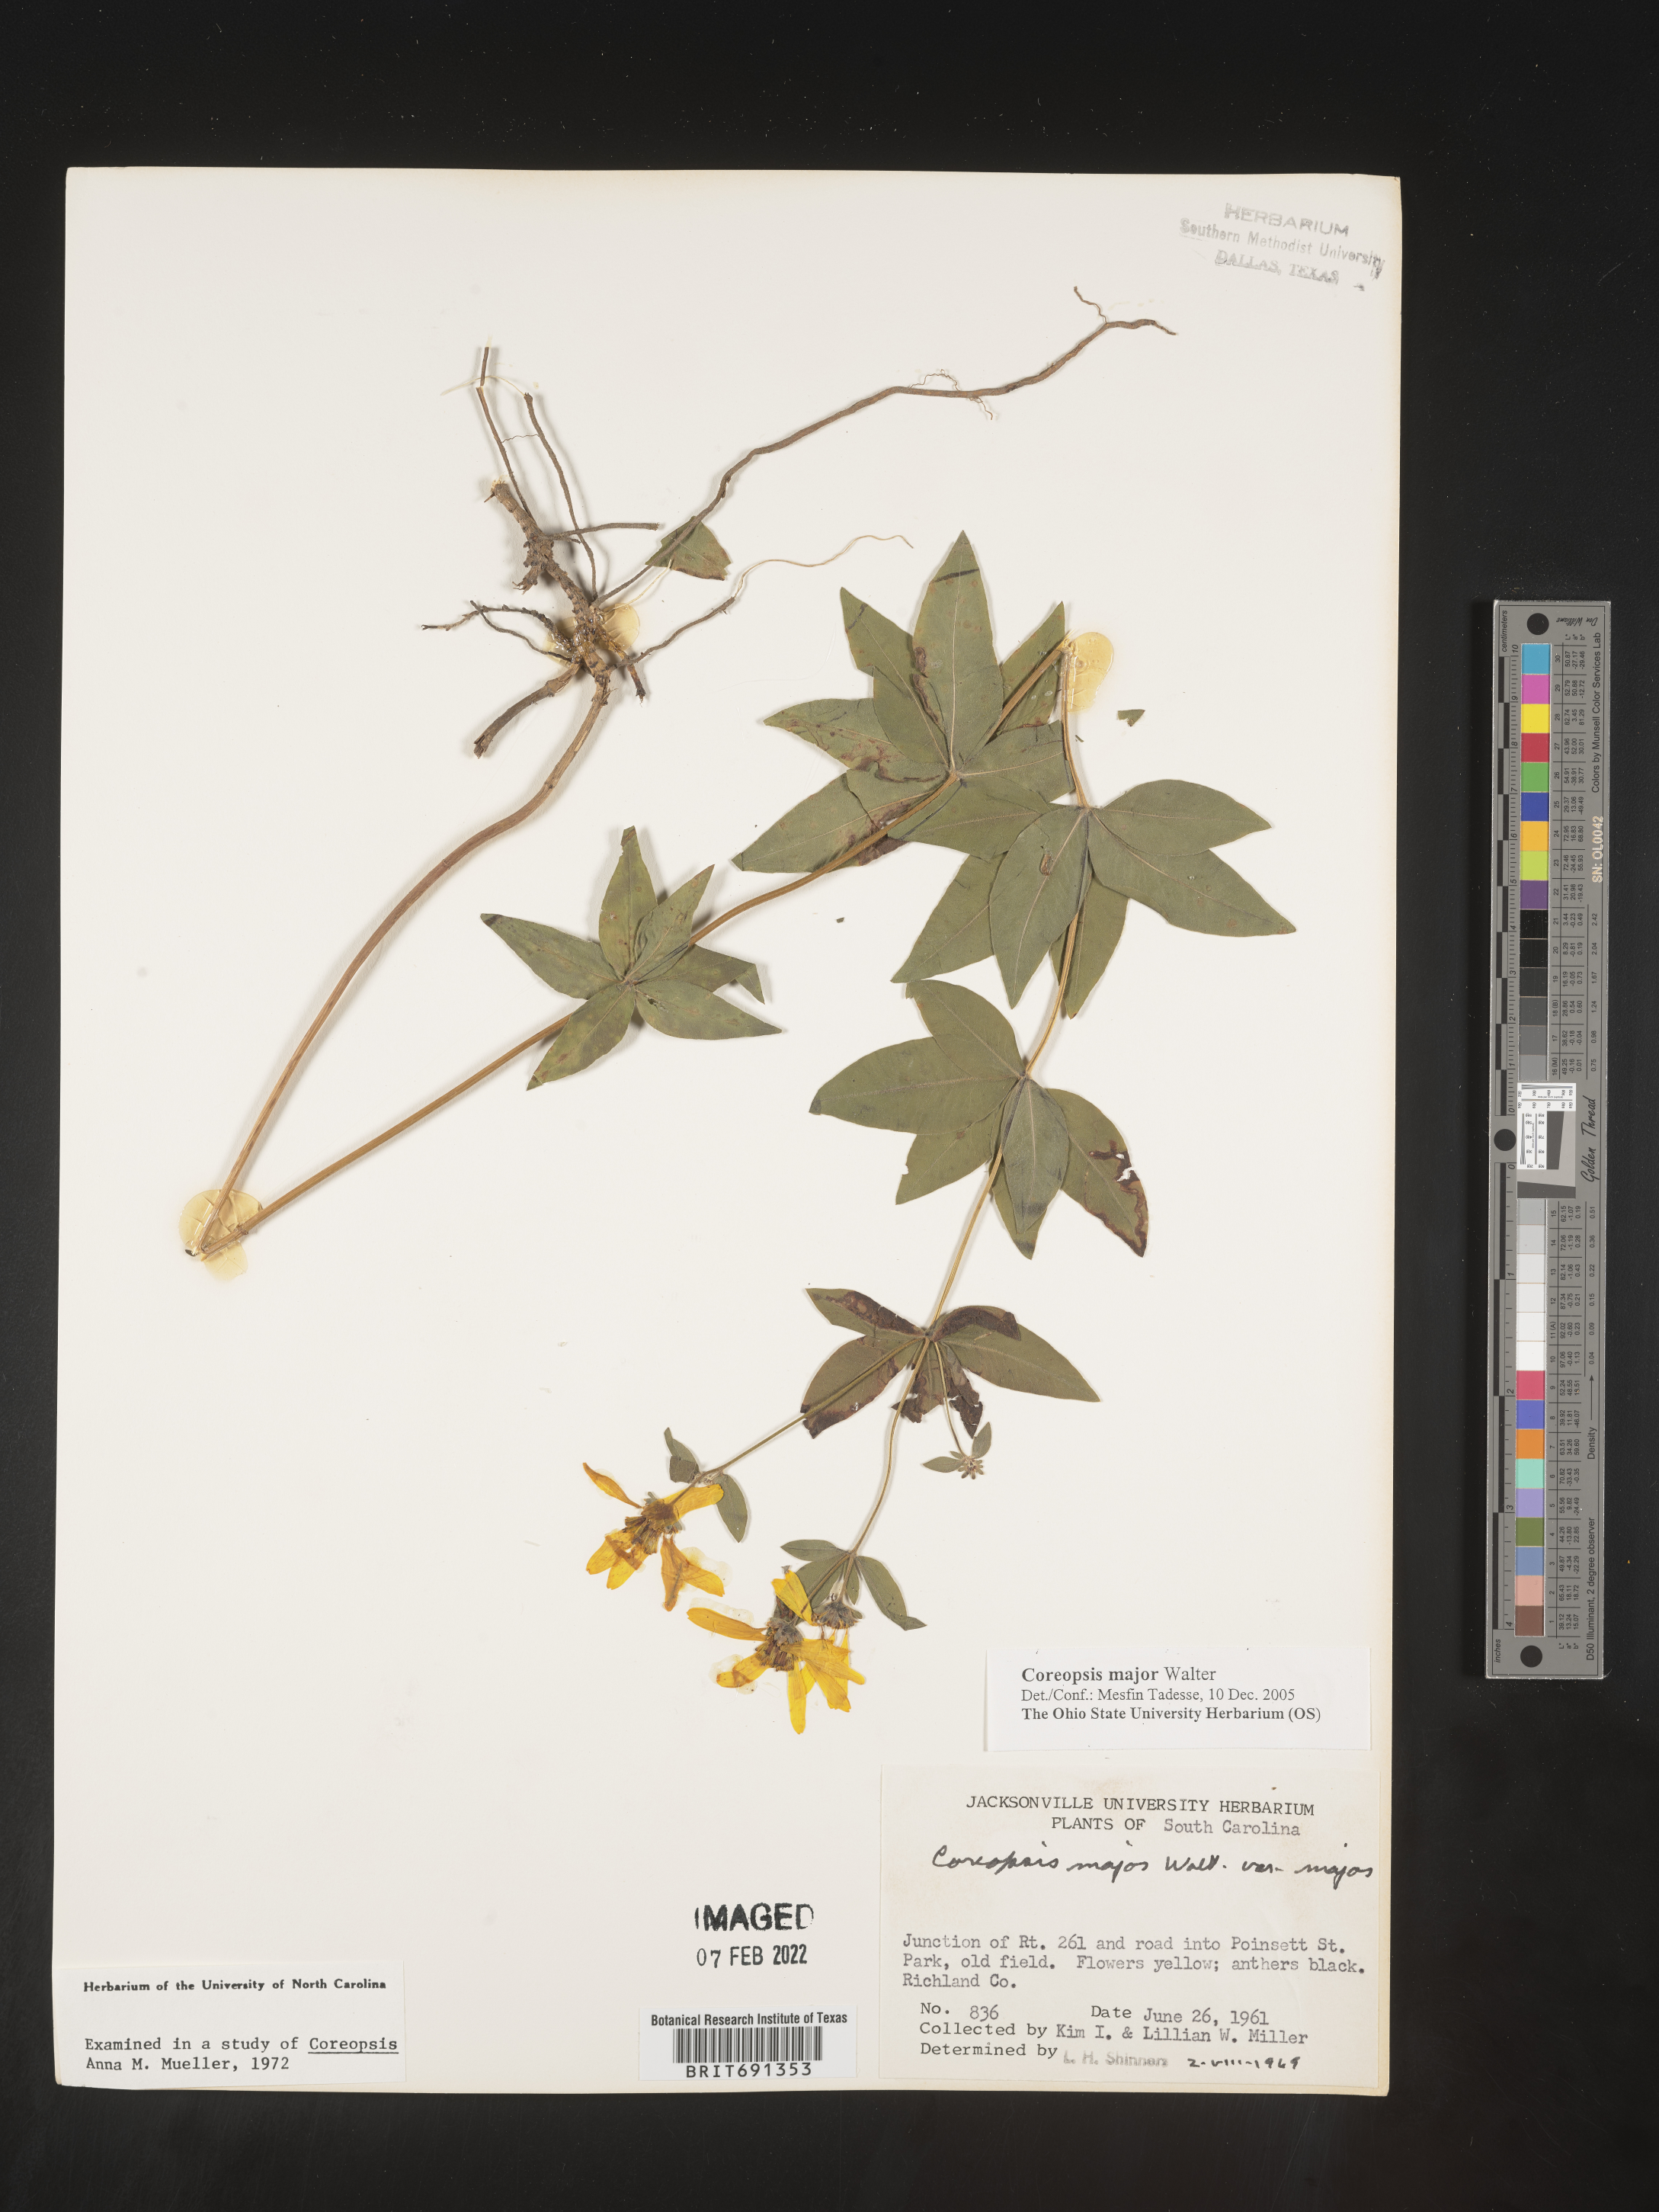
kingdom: Plantae
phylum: Tracheophyta
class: Magnoliopsida
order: Asterales
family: Asteraceae
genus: Coreopsis
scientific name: Coreopsis major
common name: Forest tickseed
